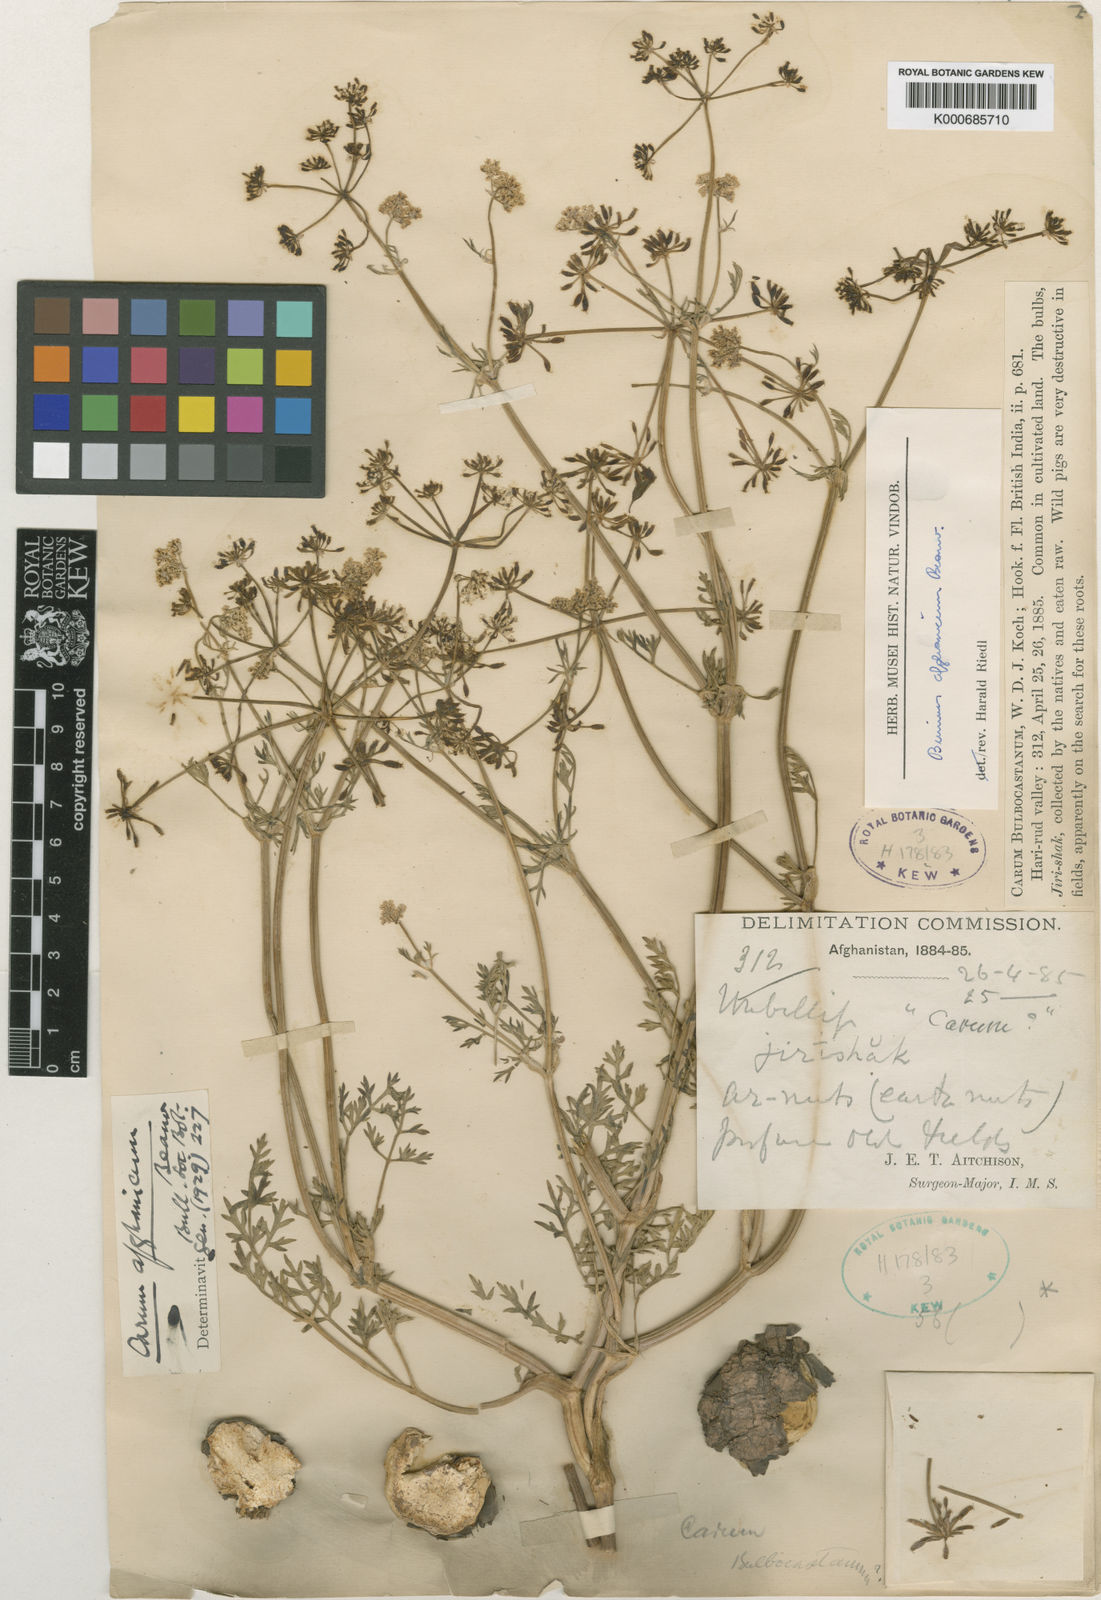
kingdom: Plantae
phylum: Tracheophyta
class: Magnoliopsida
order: Apiales
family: Apiaceae
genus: Elwendia
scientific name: Elwendia afghanica
